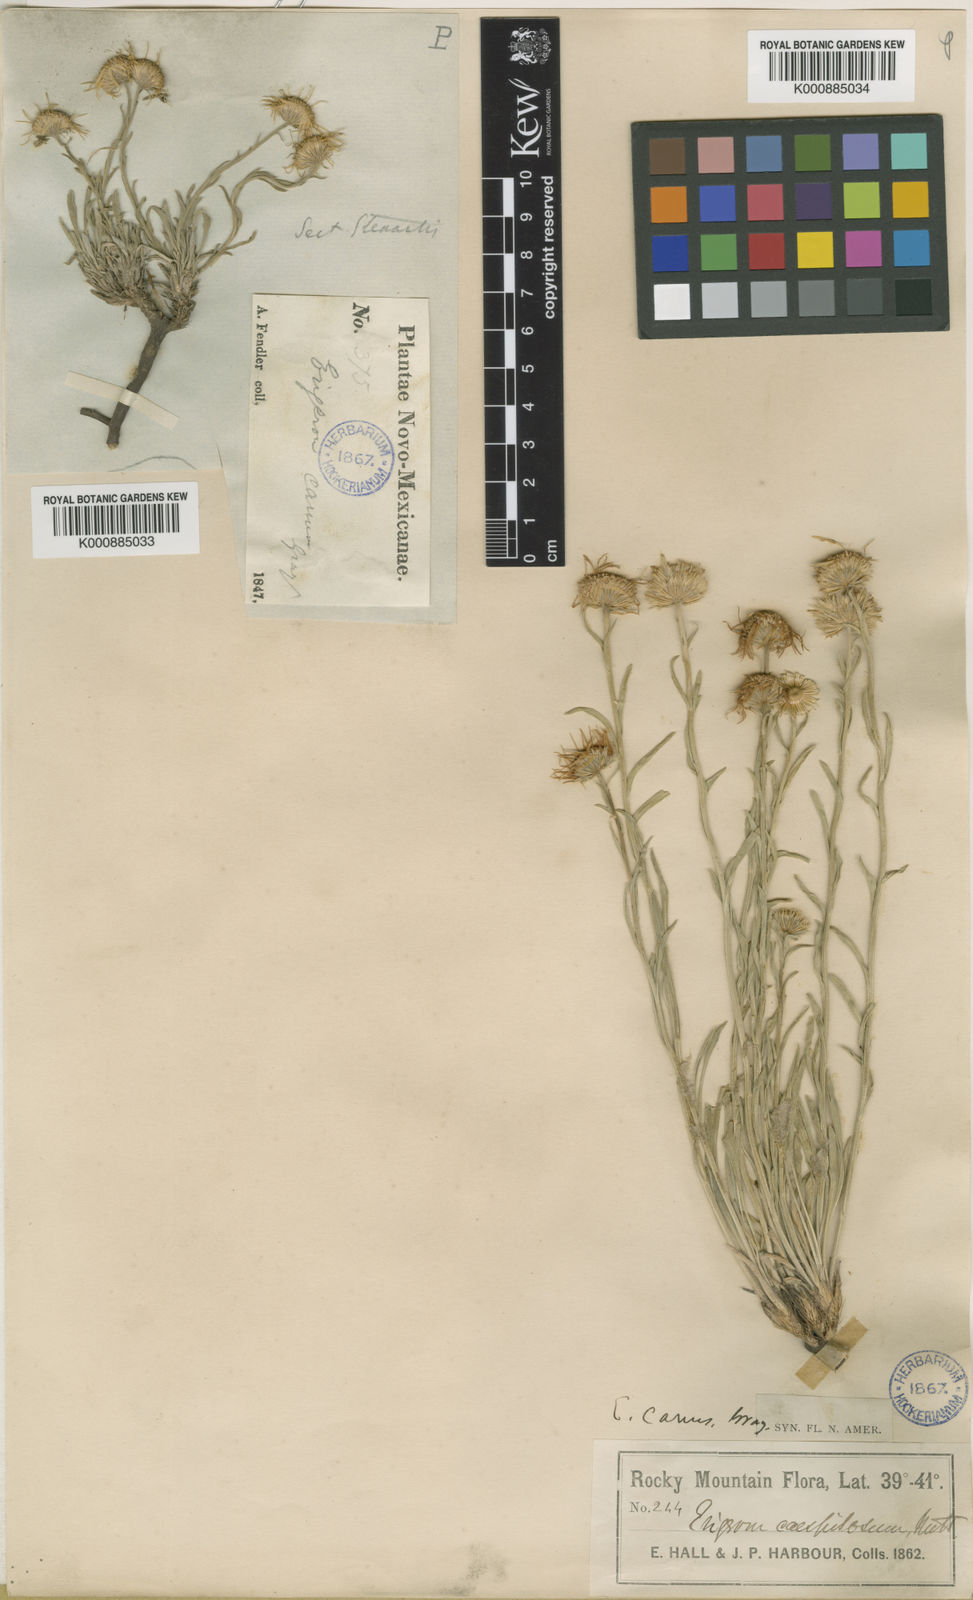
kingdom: Plantae
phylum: Tracheophyta
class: Magnoliopsida
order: Asterales
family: Asteraceae
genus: Erigeron
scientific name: Erigeron
